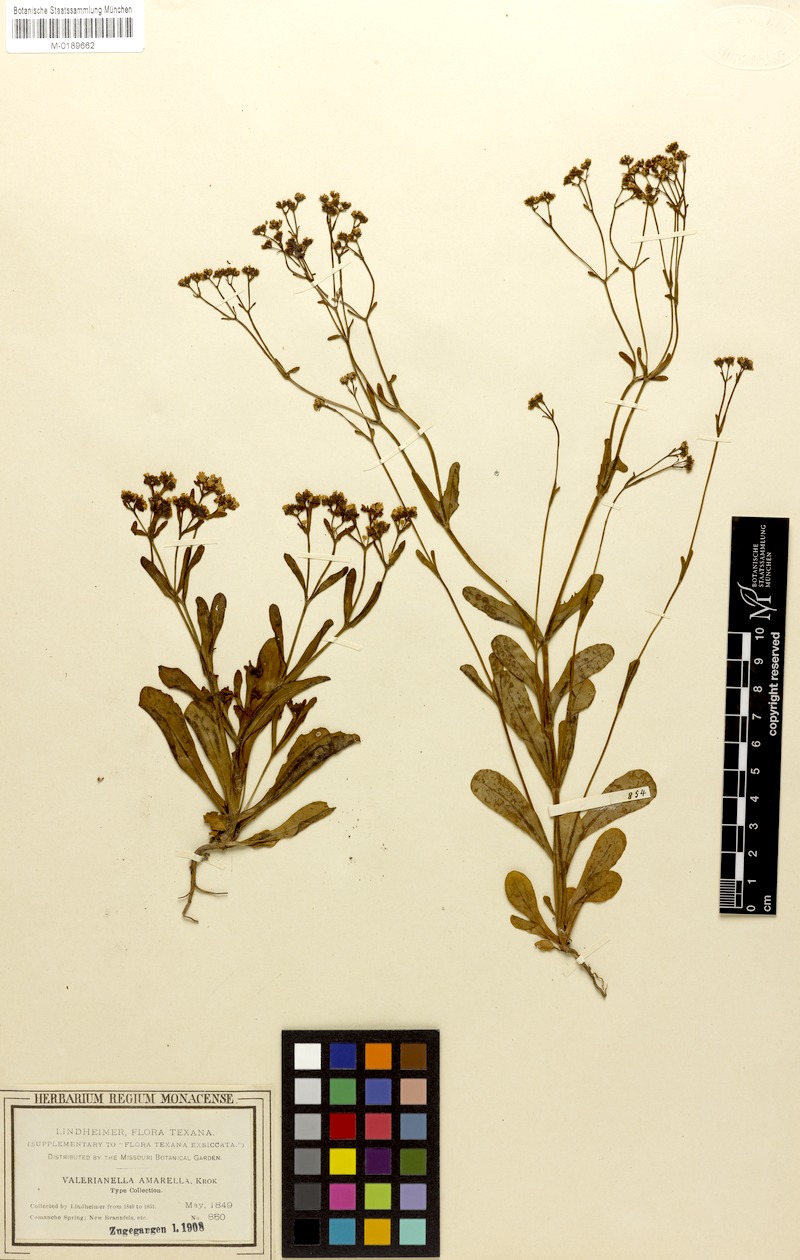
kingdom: Plantae
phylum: Tracheophyta
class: Magnoliopsida
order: Dipsacales
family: Caprifoliaceae
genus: Valerianella
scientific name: Valerianella amarella
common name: Hariy cornsalad
